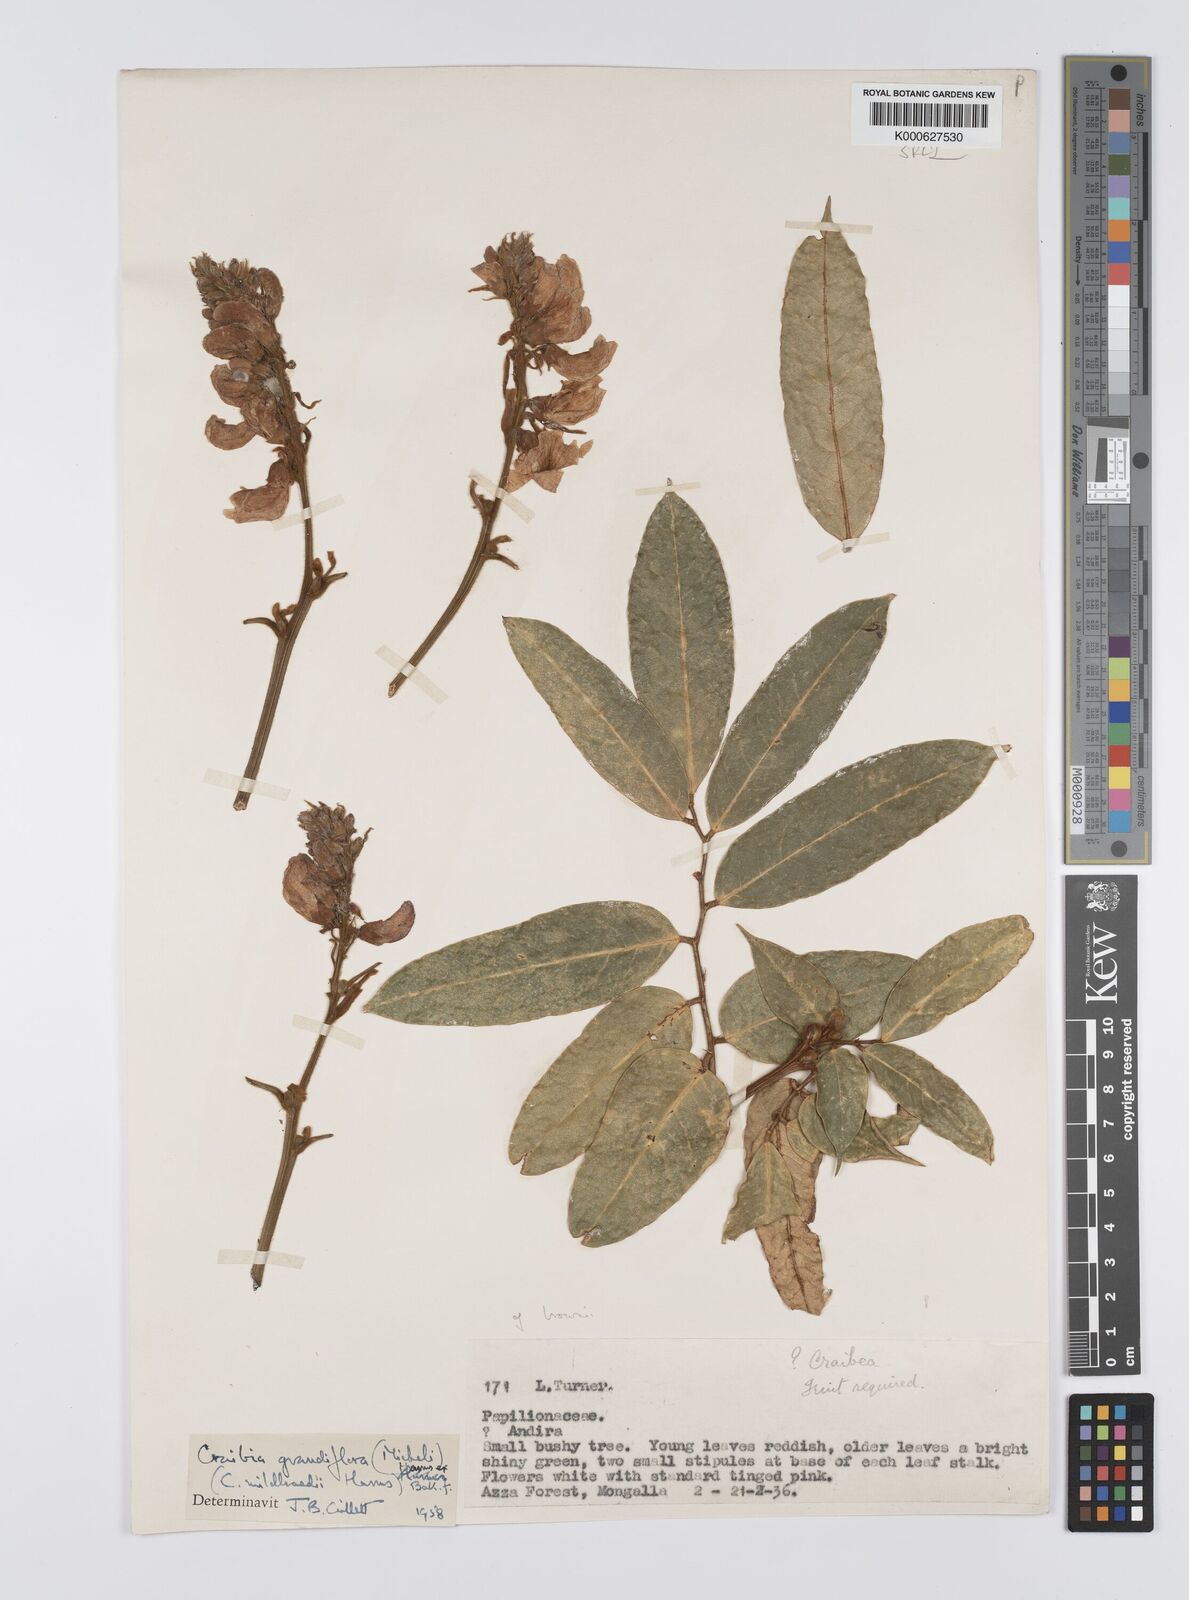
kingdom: Plantae
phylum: Tracheophyta
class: Magnoliopsida
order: Fabales
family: Fabaceae
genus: Craibia
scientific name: Craibia grandiflora
